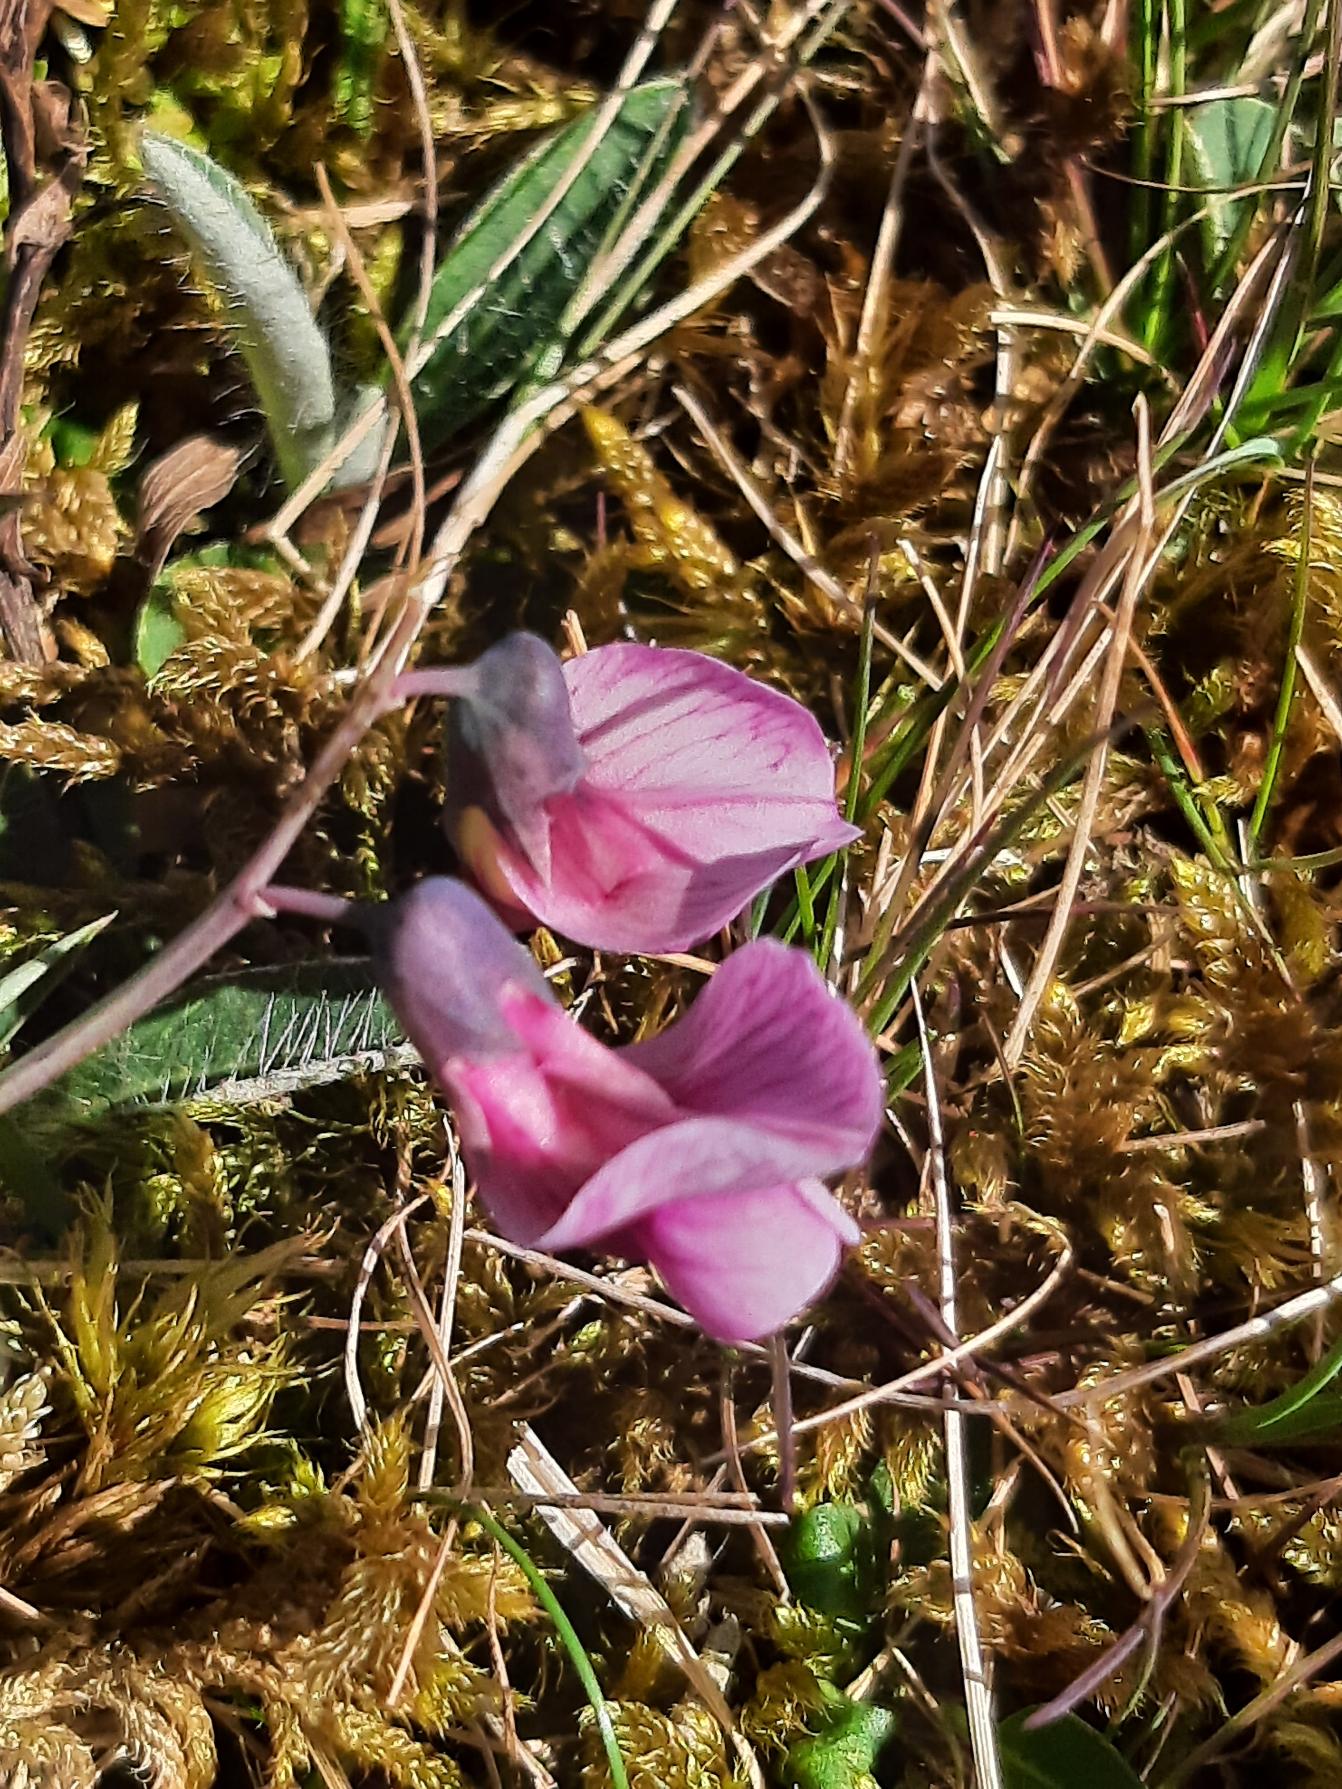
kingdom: Plantae
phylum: Tracheophyta
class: Magnoliopsida
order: Fabales
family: Fabaceae
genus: Lathyrus
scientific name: Lathyrus linifolius
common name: Krat-fladbælg
